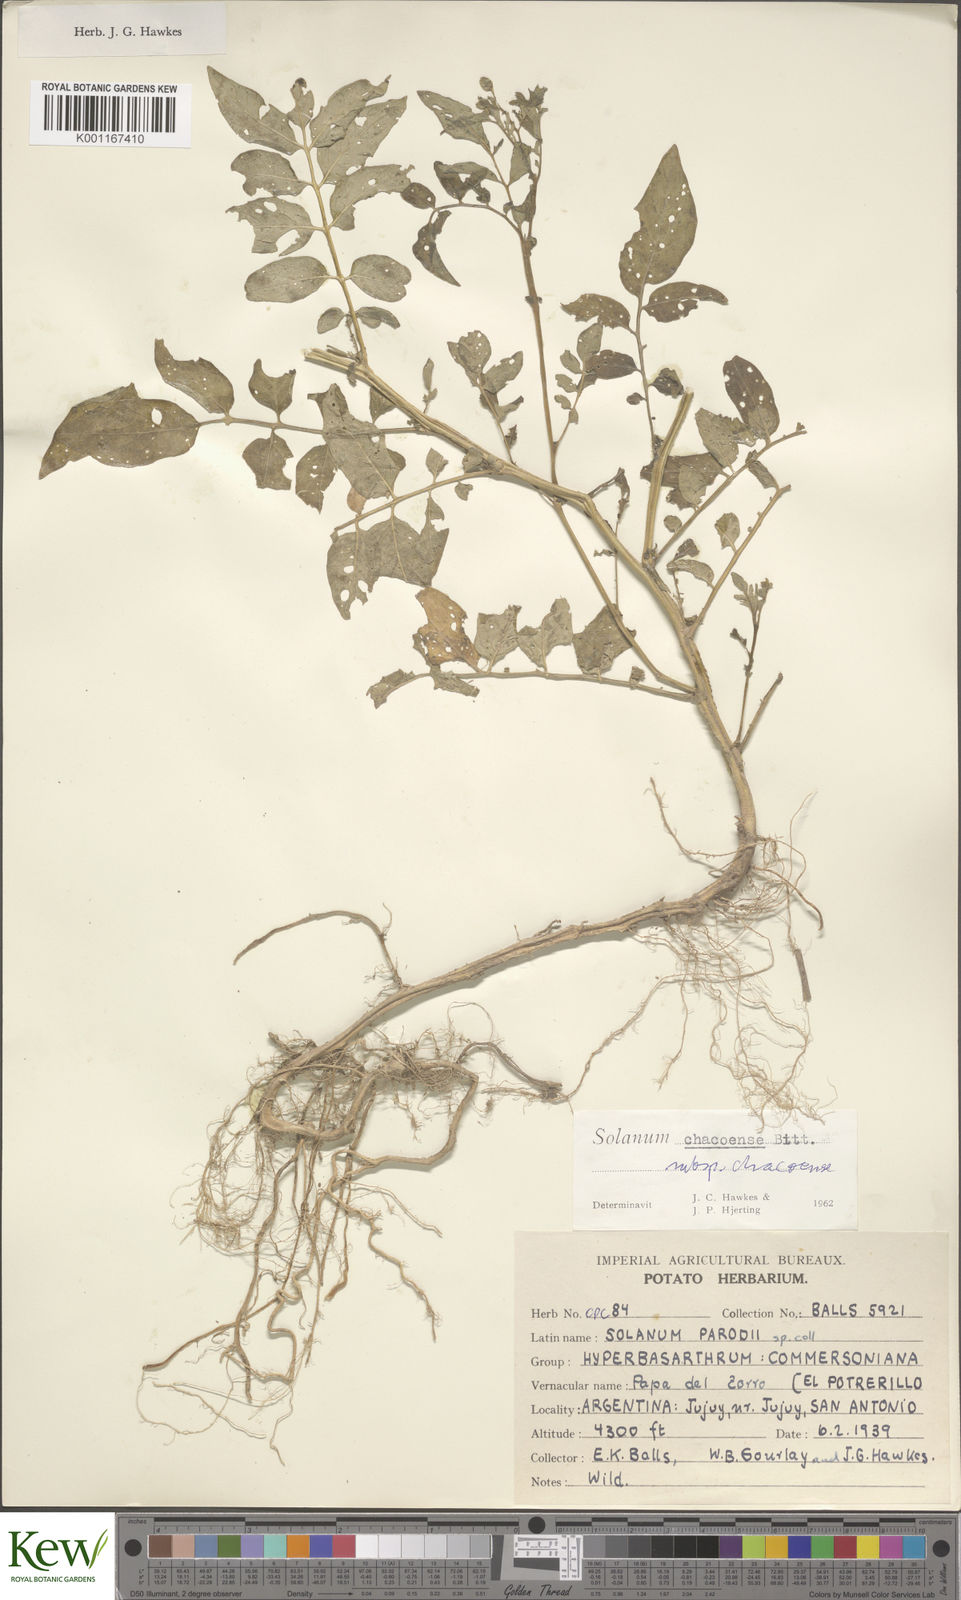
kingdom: Plantae
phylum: Tracheophyta
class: Magnoliopsida
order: Solanales
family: Solanaceae
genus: Solanum
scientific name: Solanum chacoense
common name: Chaco potato
